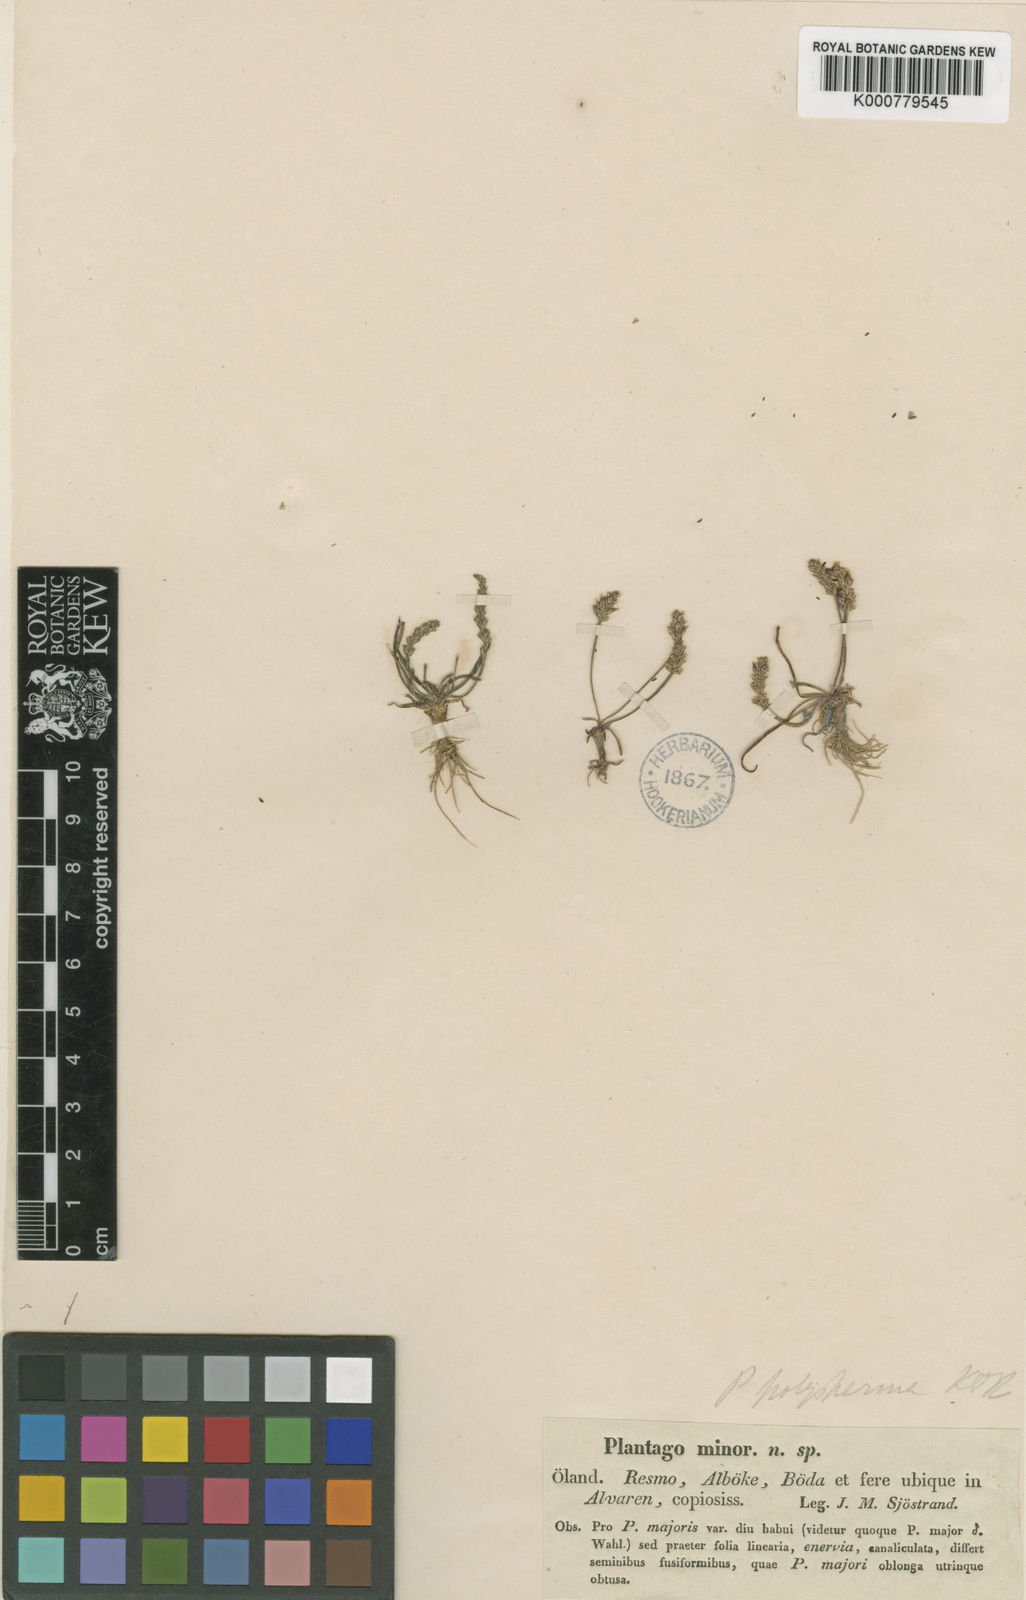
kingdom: Plantae
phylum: Tracheophyta
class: Magnoliopsida
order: Lamiales
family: Plantaginaceae
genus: Plantago
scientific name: Plantago tenuiflora
